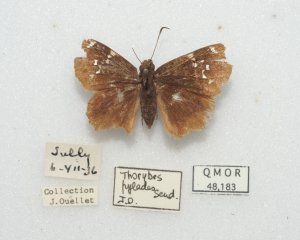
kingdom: Animalia
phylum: Arthropoda
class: Insecta
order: Lepidoptera
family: Hesperiidae
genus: Autochton
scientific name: Autochton
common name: Northern Cloudywing
